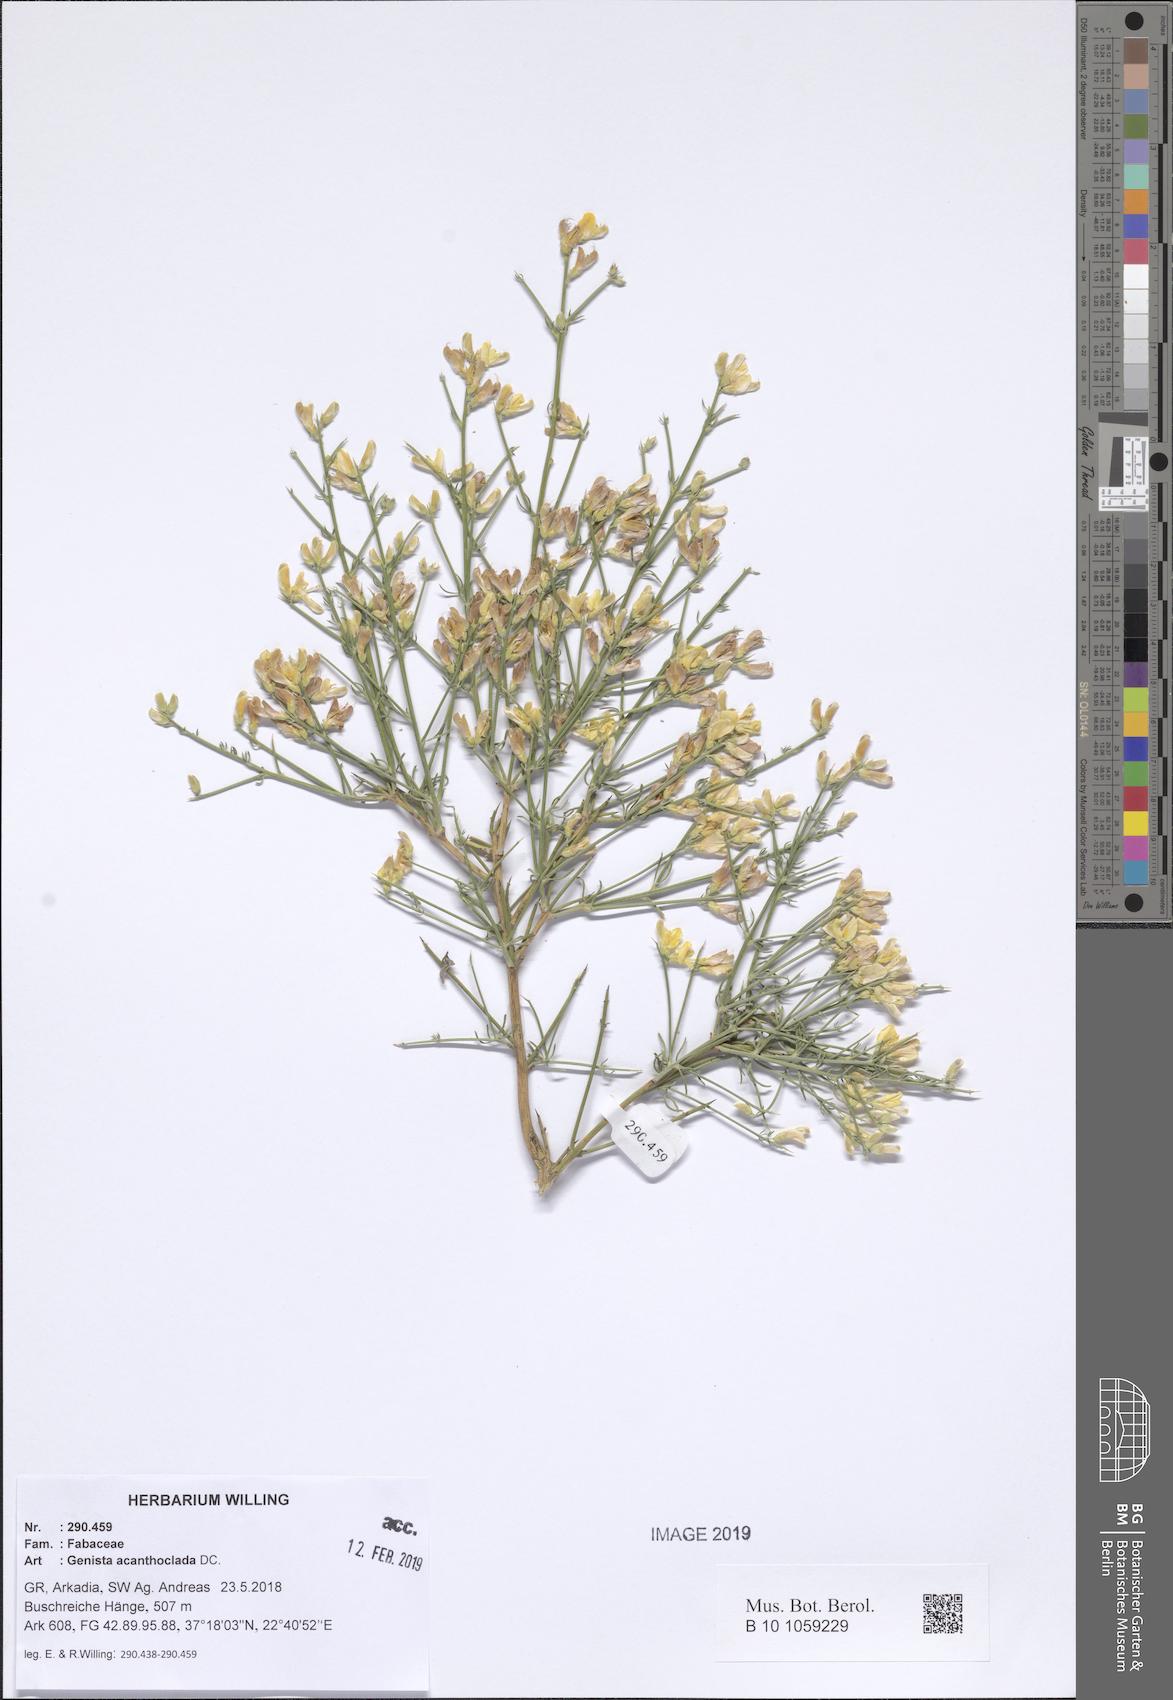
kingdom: Plantae
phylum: Tracheophyta
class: Magnoliopsida
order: Fabales
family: Fabaceae
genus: Genista
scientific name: Genista acanthoclada
